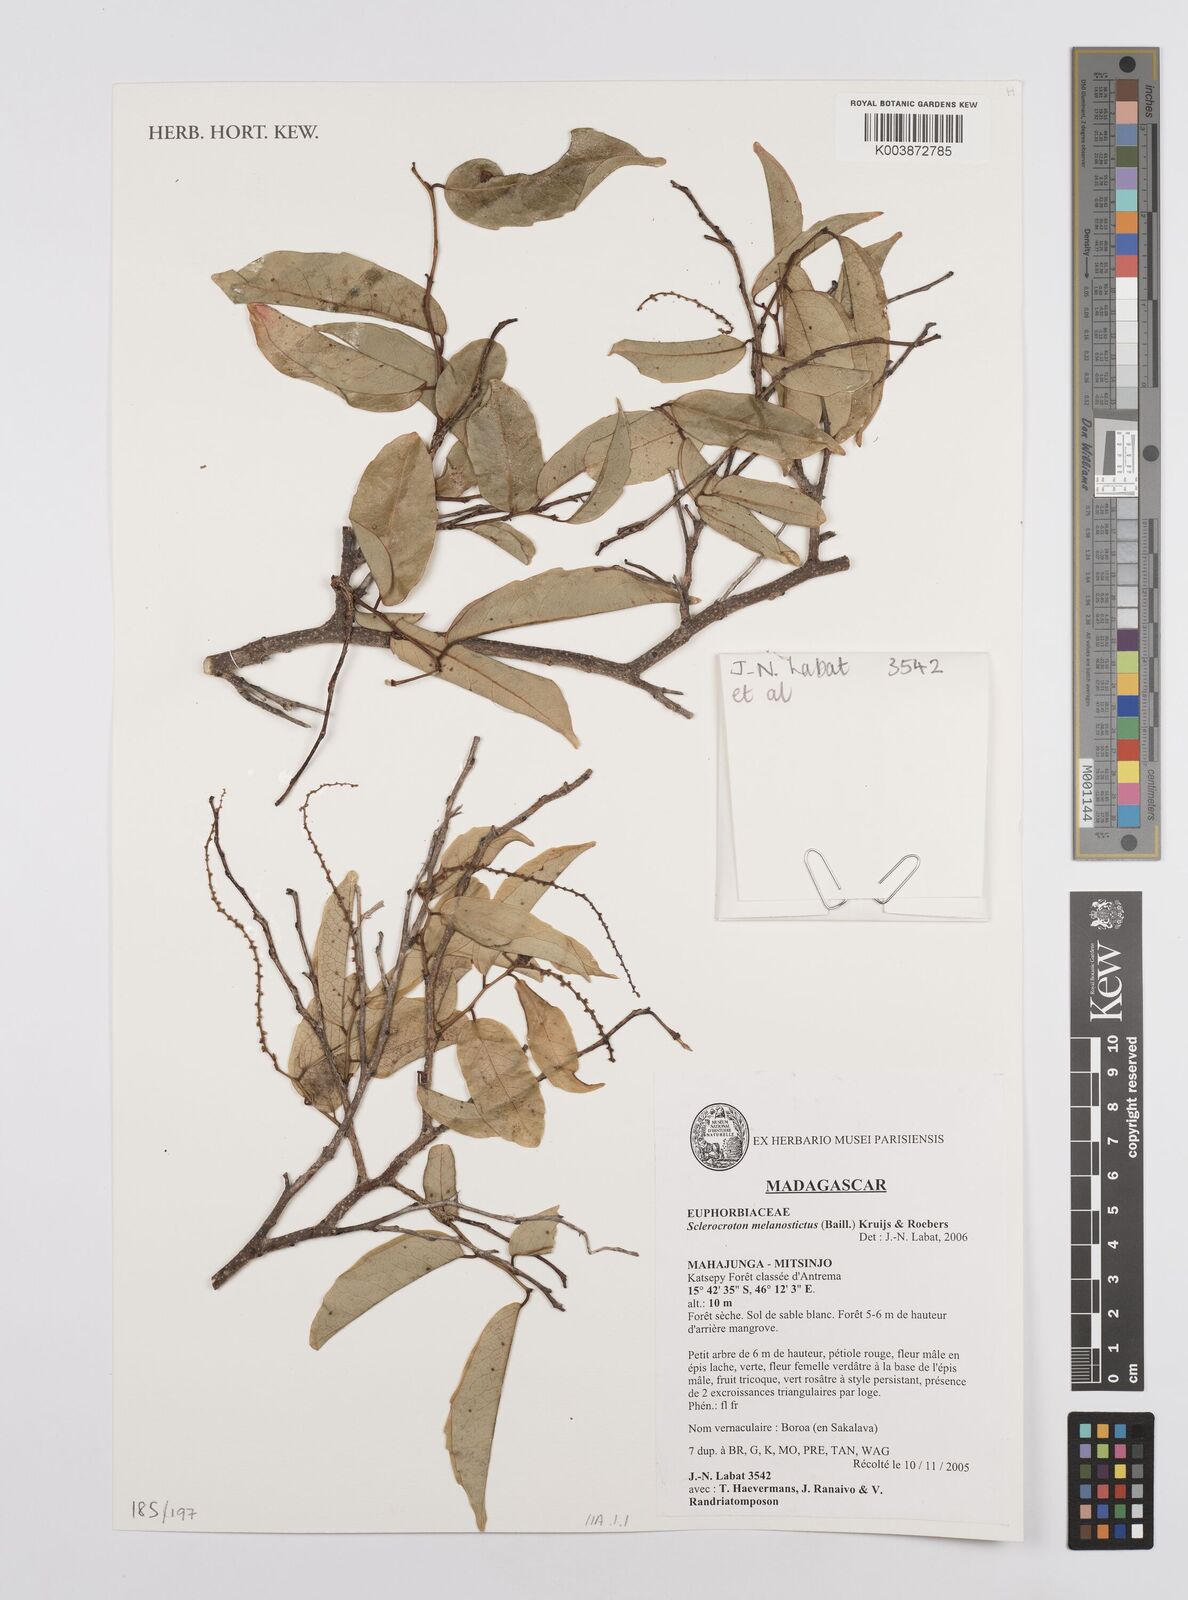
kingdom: Plantae
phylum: Tracheophyta
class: Magnoliopsida
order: Malpighiales
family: Euphorbiaceae
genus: Sclerocroton
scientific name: Sclerocroton melanostictus
